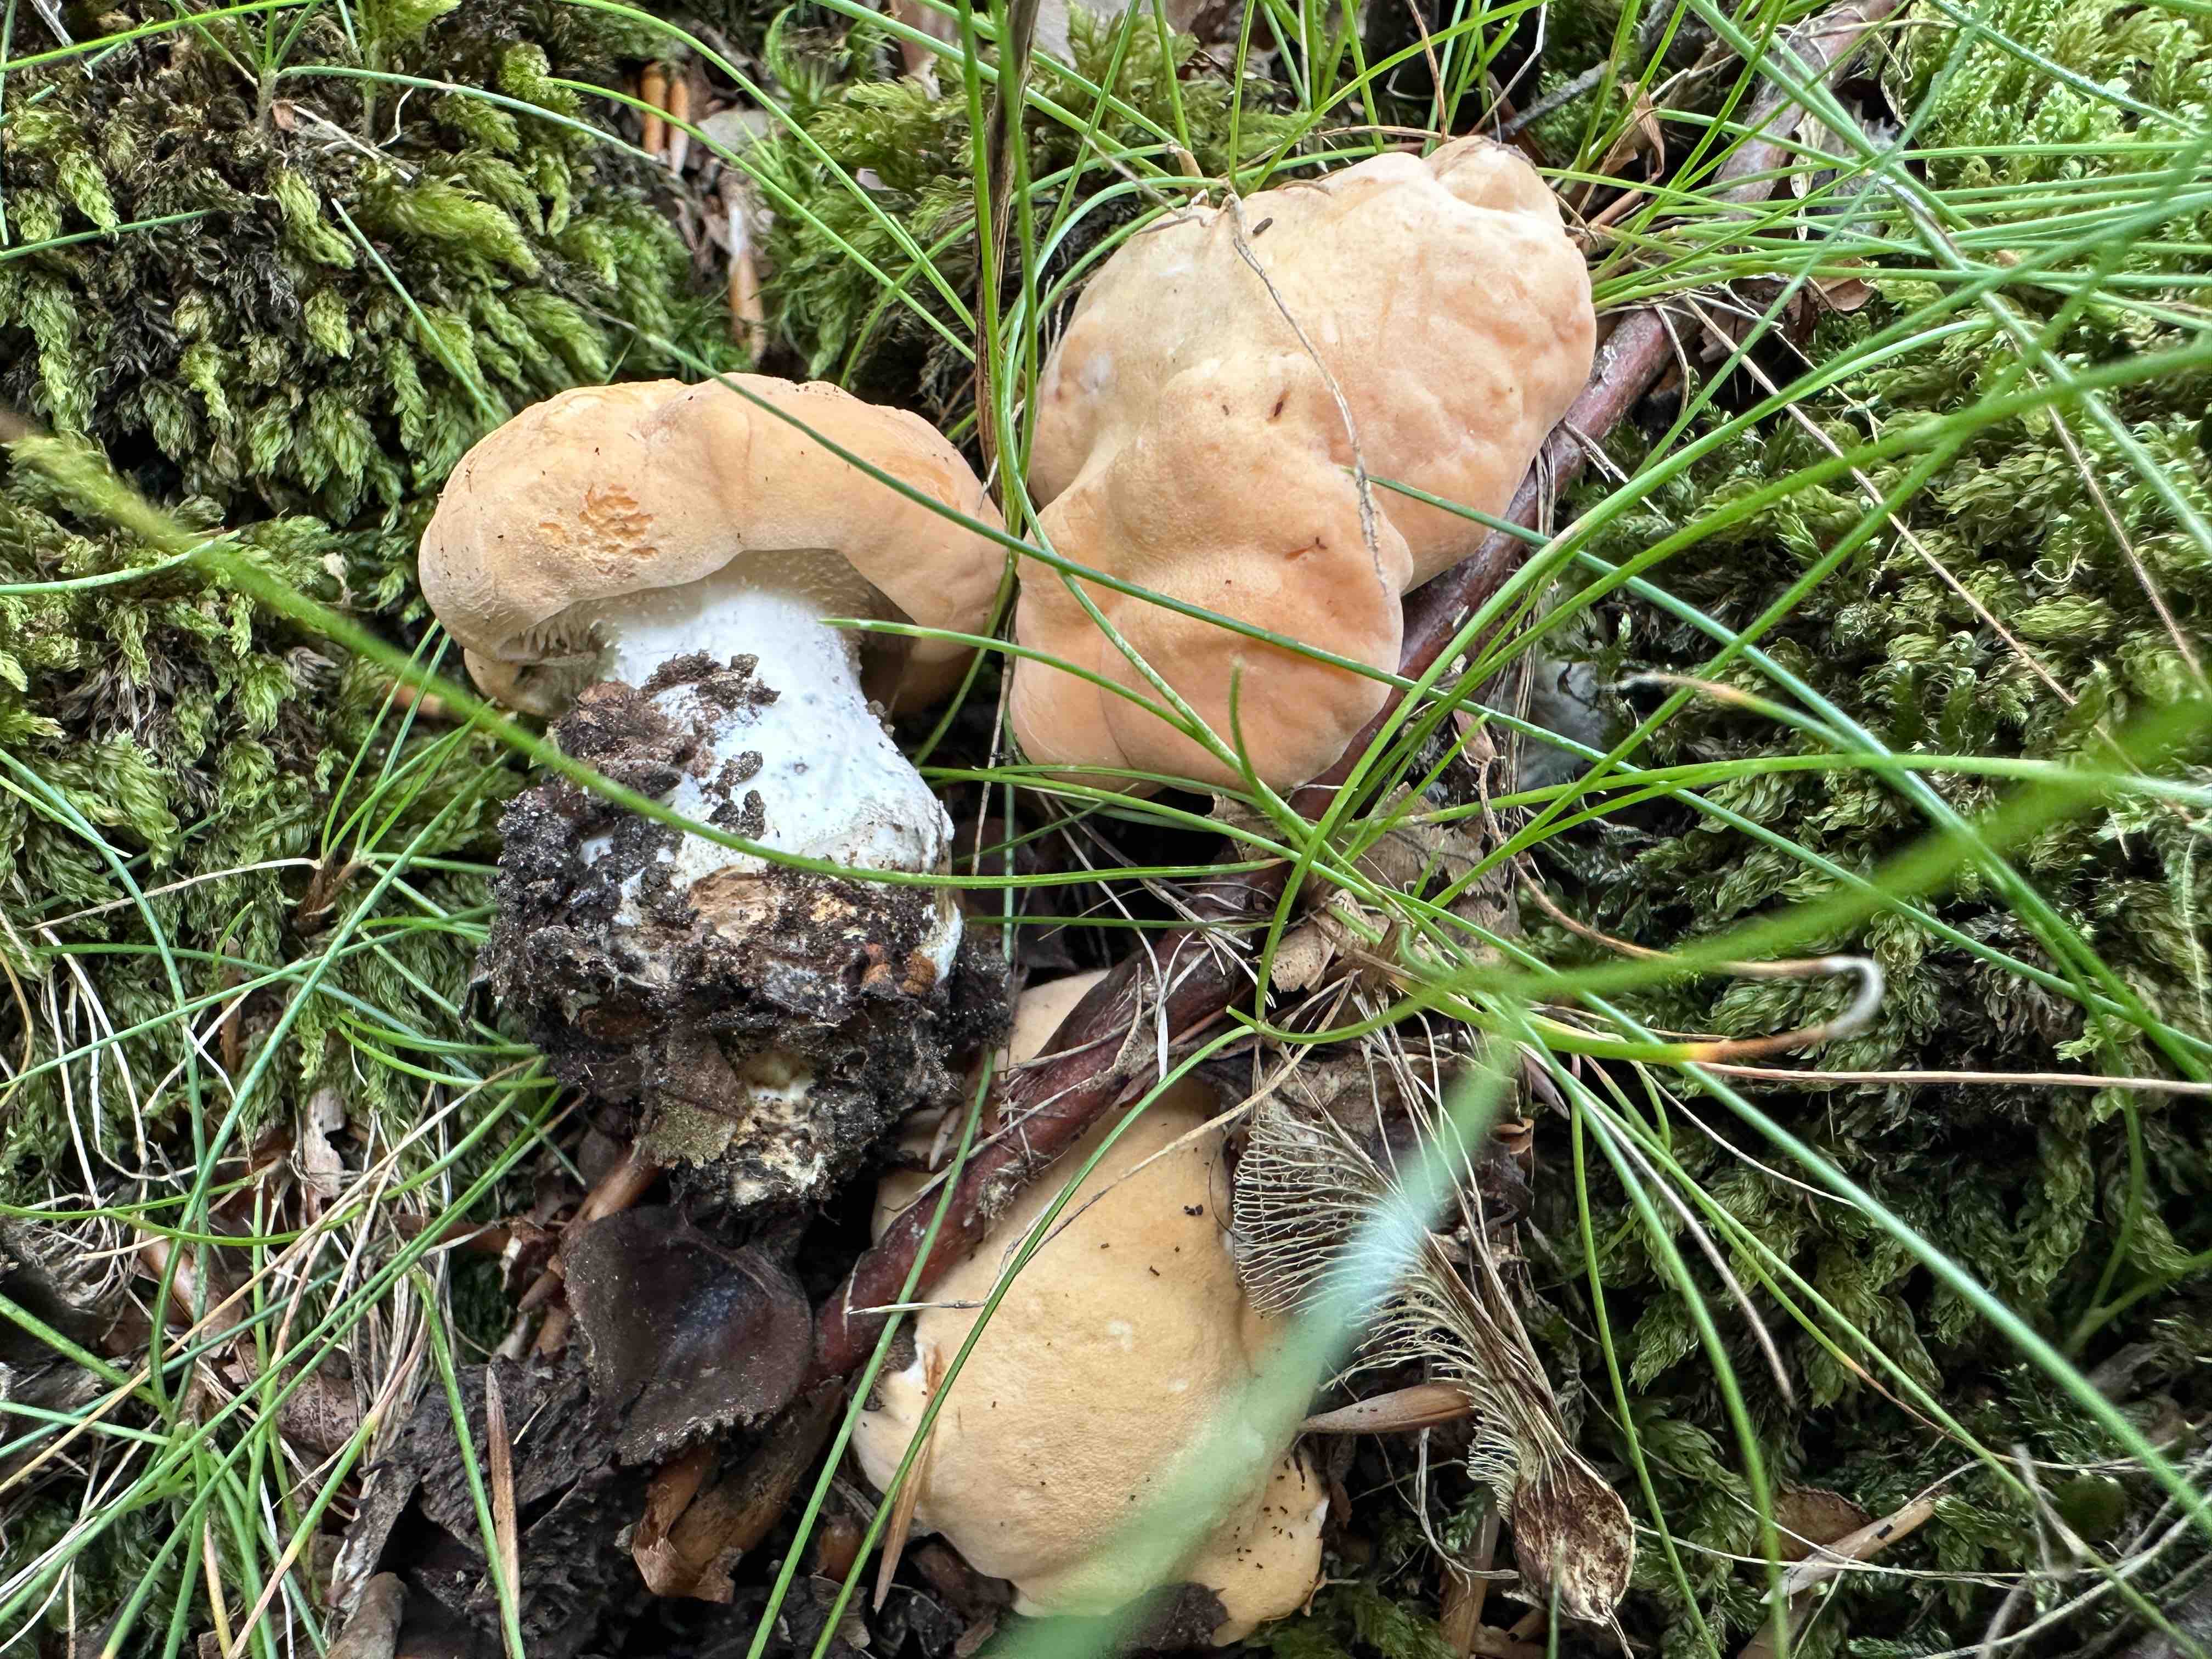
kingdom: Fungi
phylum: Basidiomycota
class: Agaricomycetes
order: Cantharellales
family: Hydnaceae
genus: Hydnum
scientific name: Hydnum repandum
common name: almindelig pigsvamp
